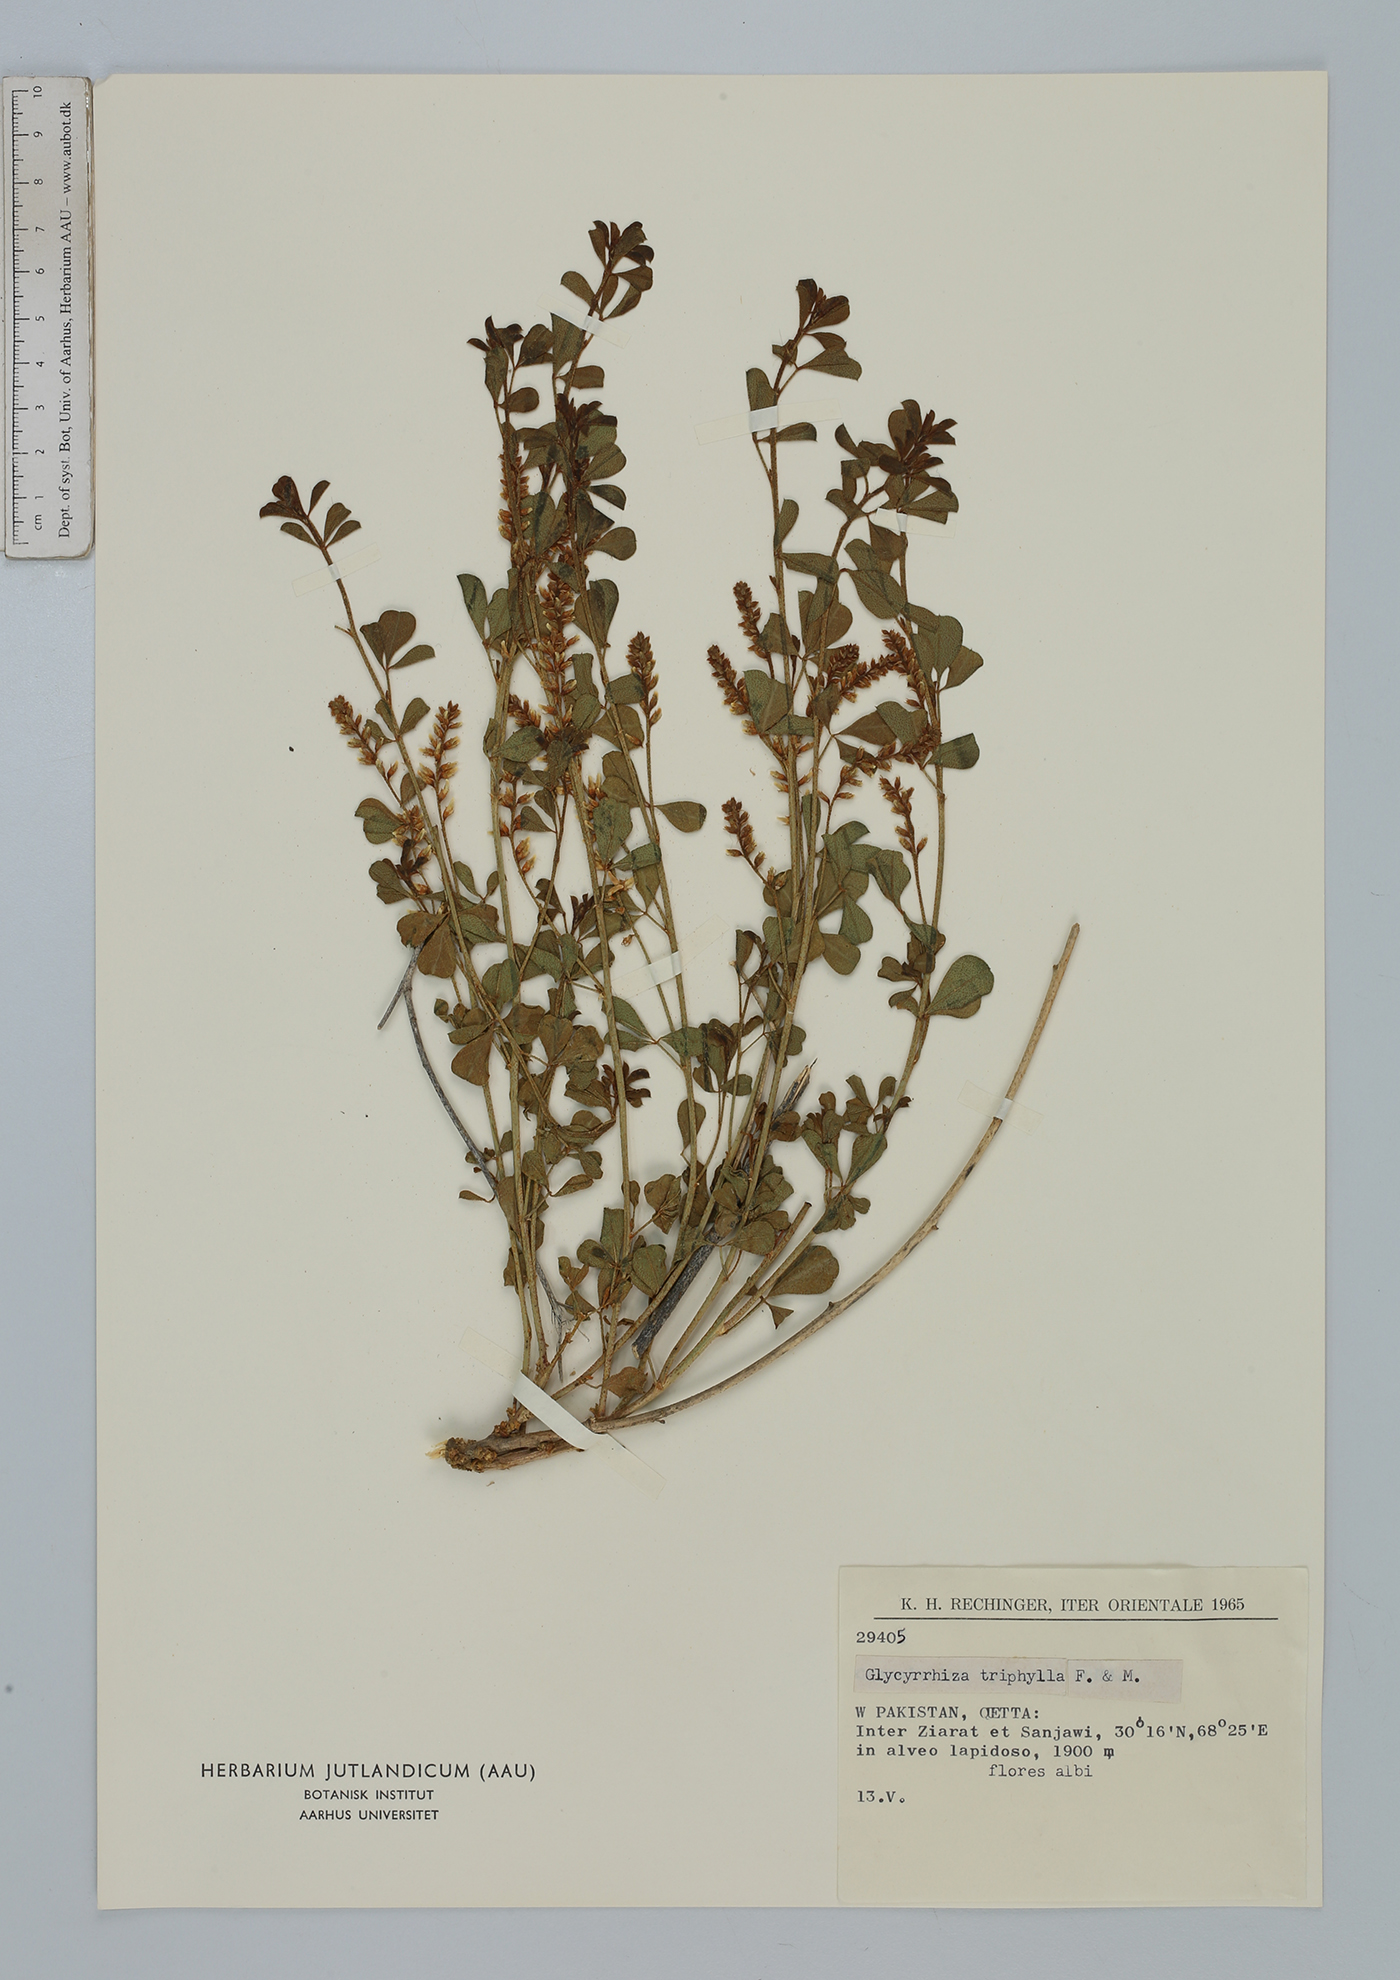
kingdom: Plantae
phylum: Tracheophyta
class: Magnoliopsida
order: Fabales
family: Fabaceae
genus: Glycyrrhiza
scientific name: Glycyrrhiza triphylla
